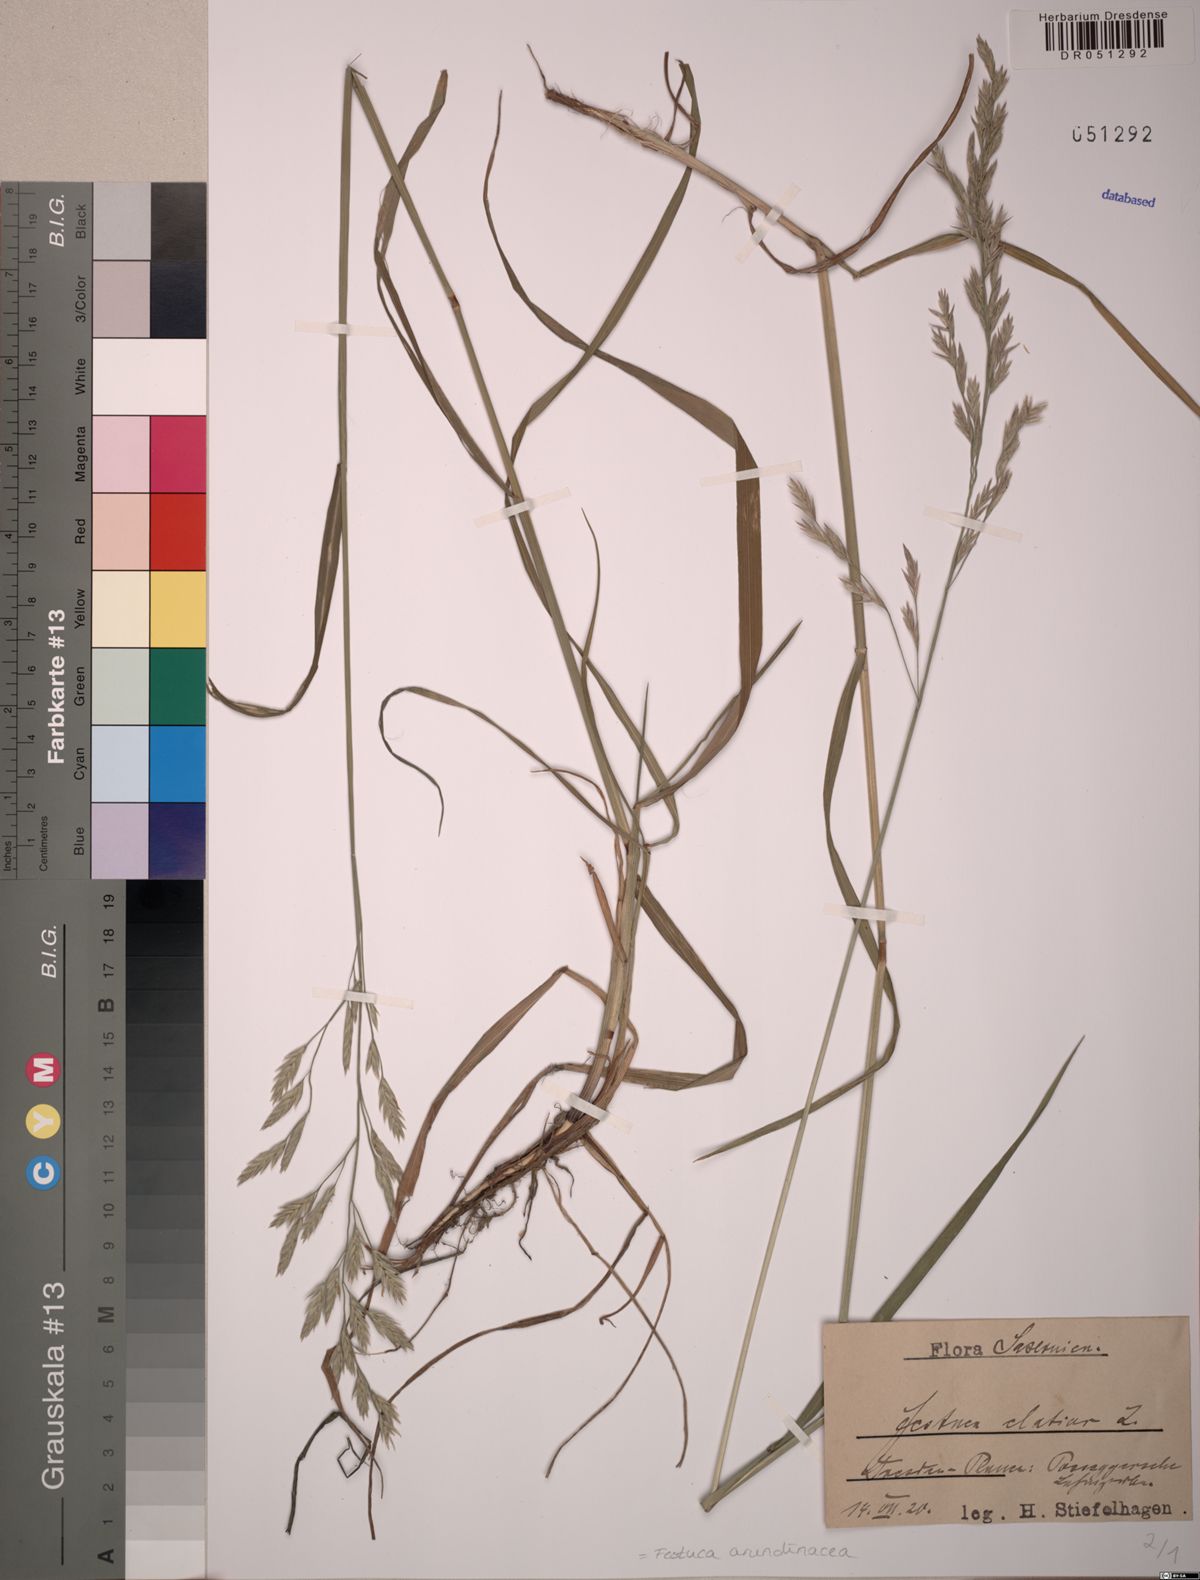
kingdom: Plantae
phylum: Tracheophyta
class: Liliopsida
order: Poales
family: Poaceae
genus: Lolium
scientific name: Lolium arundinaceum
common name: Reed fescue
